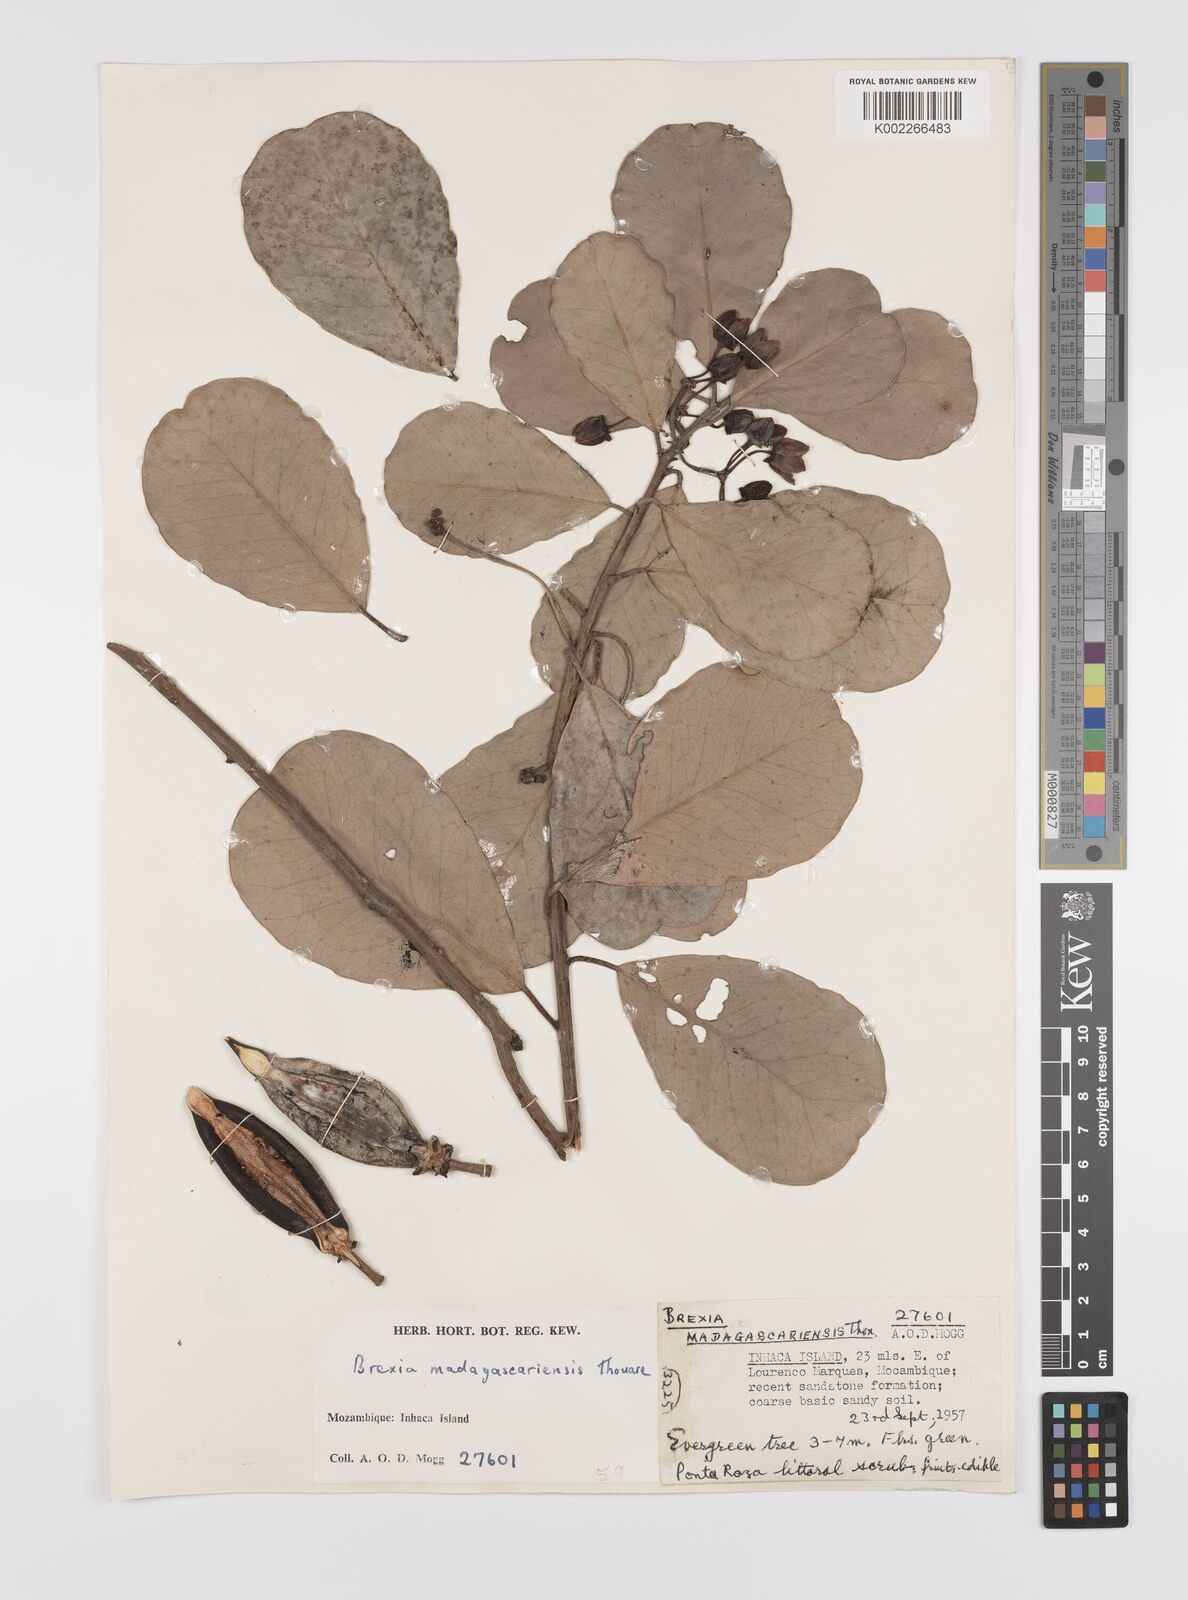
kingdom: Plantae
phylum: Tracheophyta
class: Magnoliopsida
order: Celastrales
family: Celastraceae
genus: Brexia
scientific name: Brexia madagascariensis
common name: Brexia
